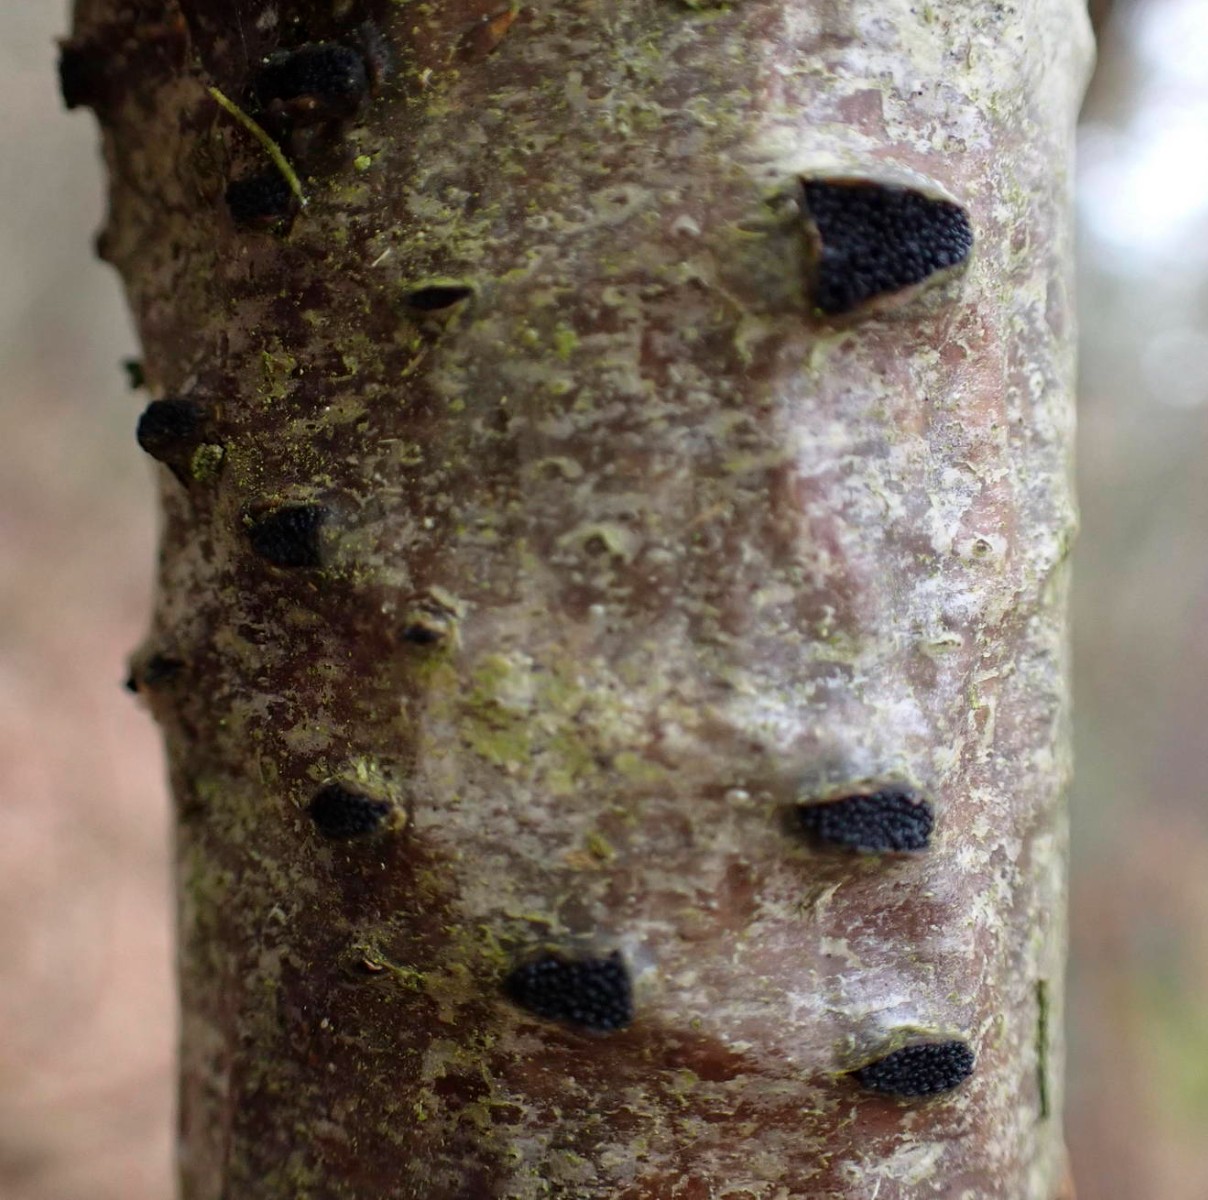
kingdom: Fungi
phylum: Ascomycota
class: Sordariomycetes
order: Xylariales
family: Diatrypaceae
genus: Eutypella
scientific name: Eutypella sorbi
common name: rønne-kulskorpe
